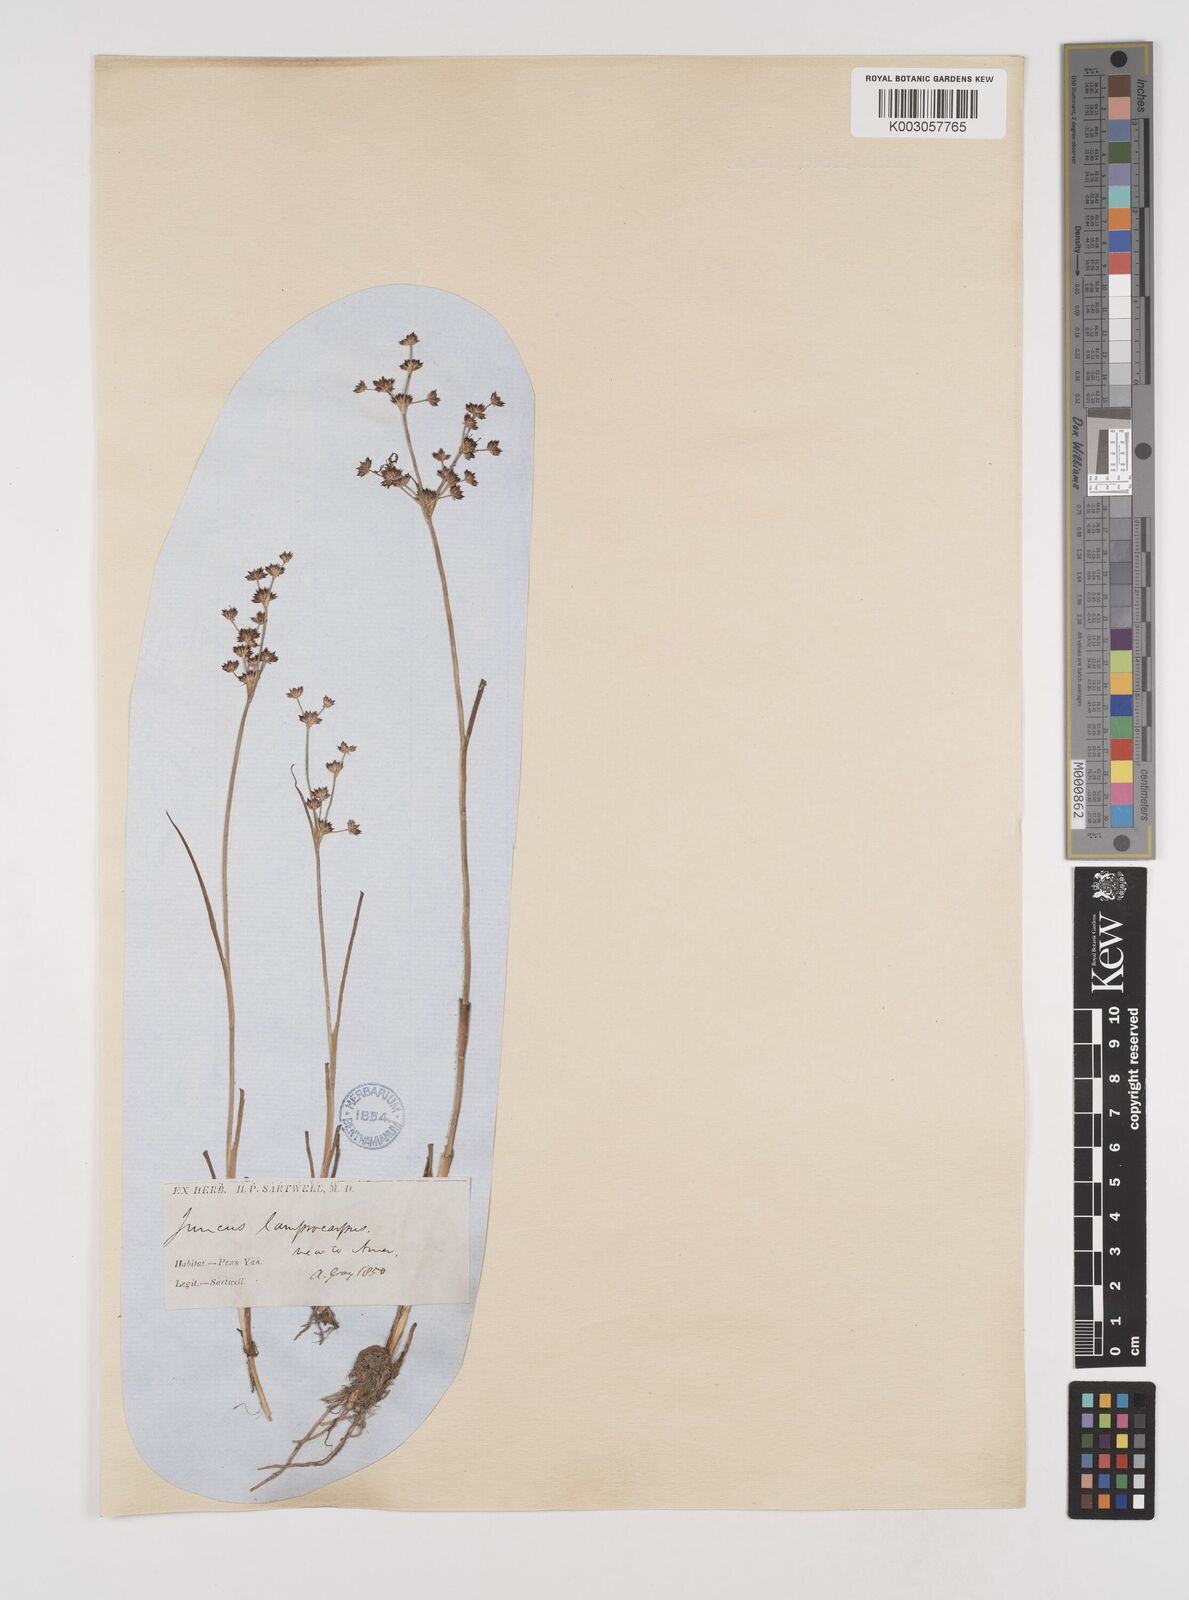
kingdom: Plantae
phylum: Tracheophyta
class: Liliopsida
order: Poales
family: Juncaceae
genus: Juncus
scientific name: Juncus articulatus
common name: Jointed rush
